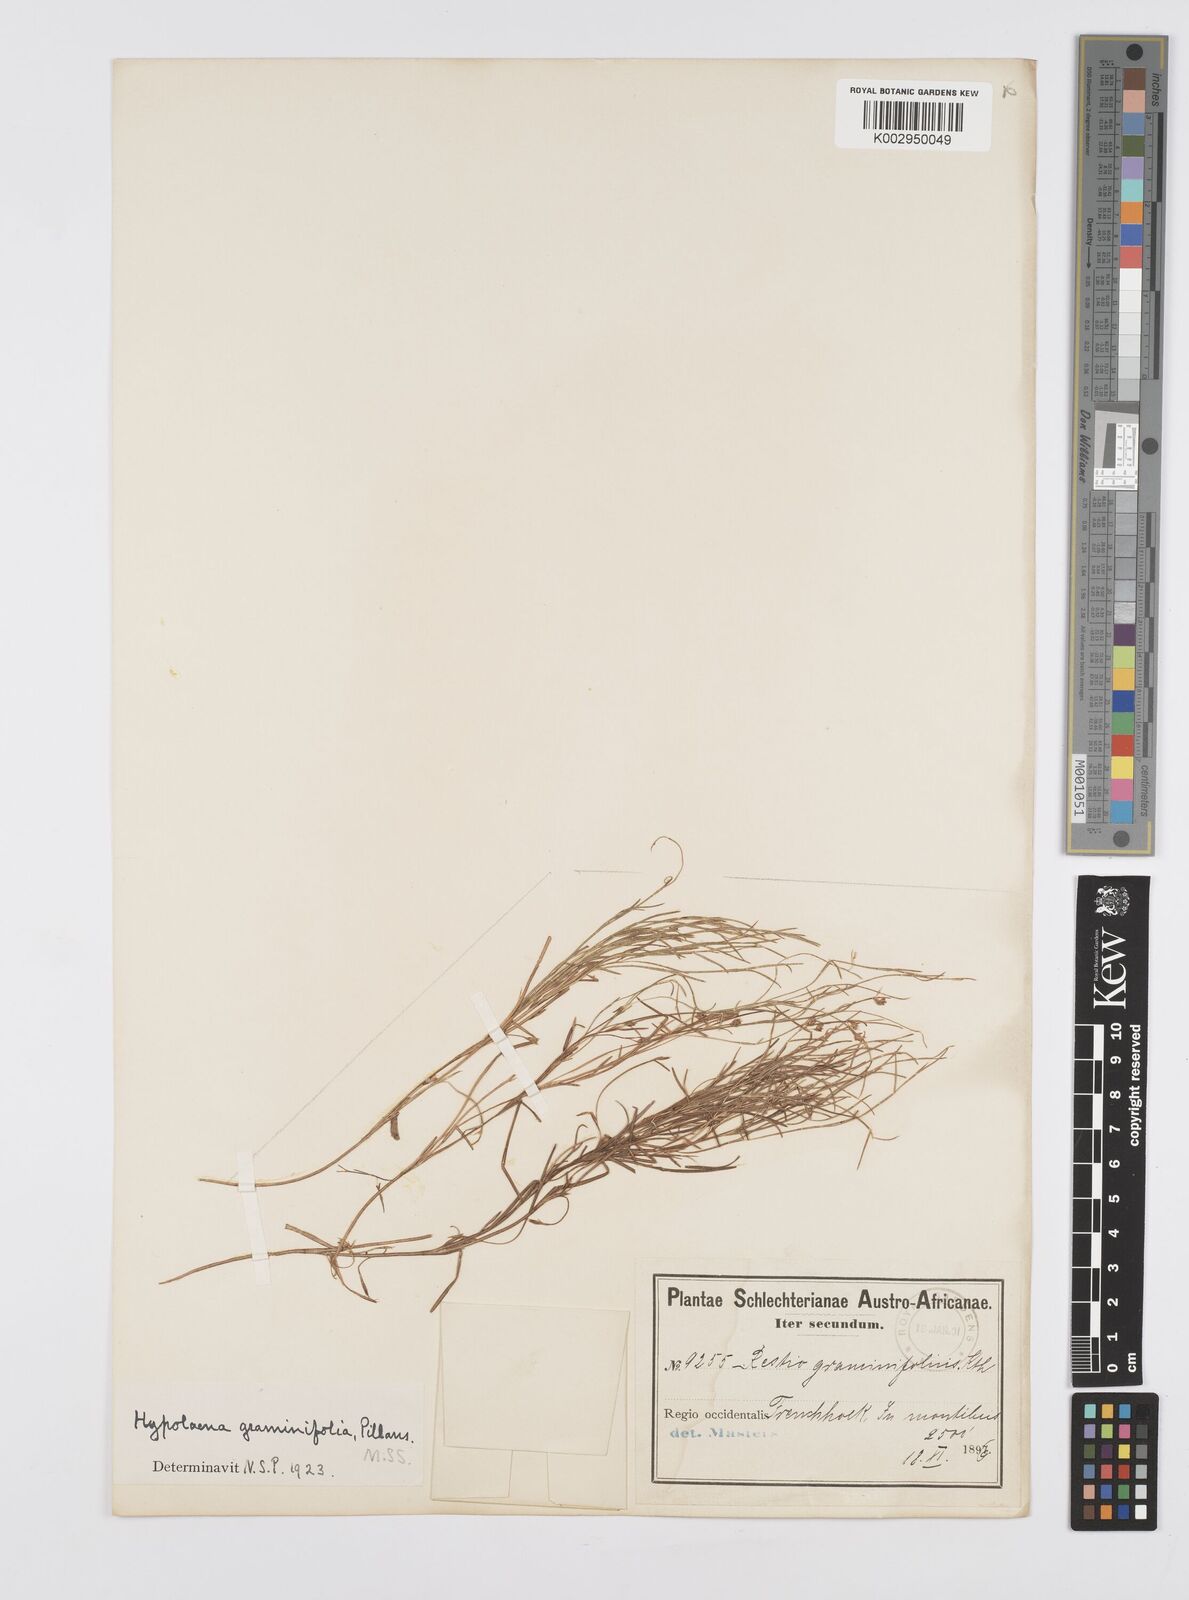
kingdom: Plantae
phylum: Tracheophyta
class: Liliopsida
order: Poales
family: Restionaceae
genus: Anthochortus
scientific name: Anthochortus graminifolius
